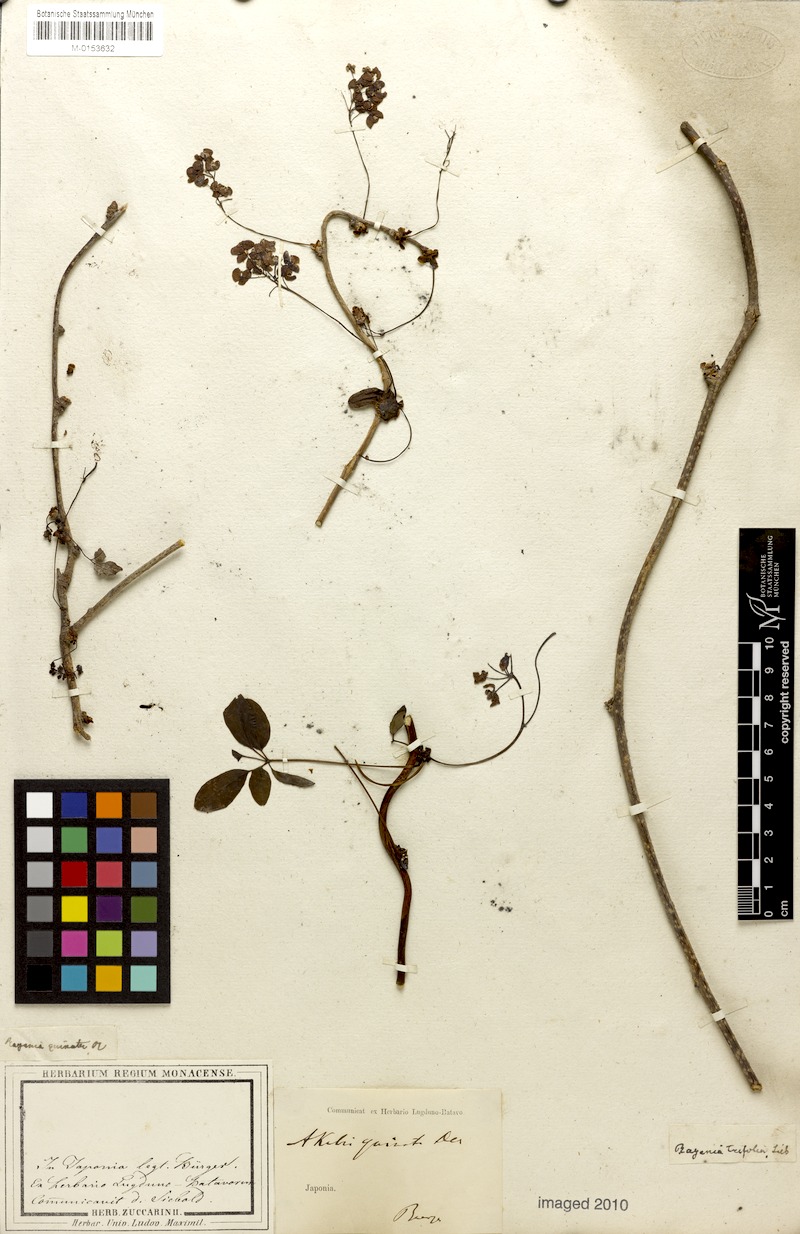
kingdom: Plantae
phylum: Tracheophyta
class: Magnoliopsida
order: Ranunculales
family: Lardizabalaceae
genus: Akebia
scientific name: Akebia quinata
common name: Five-leaf akebia
